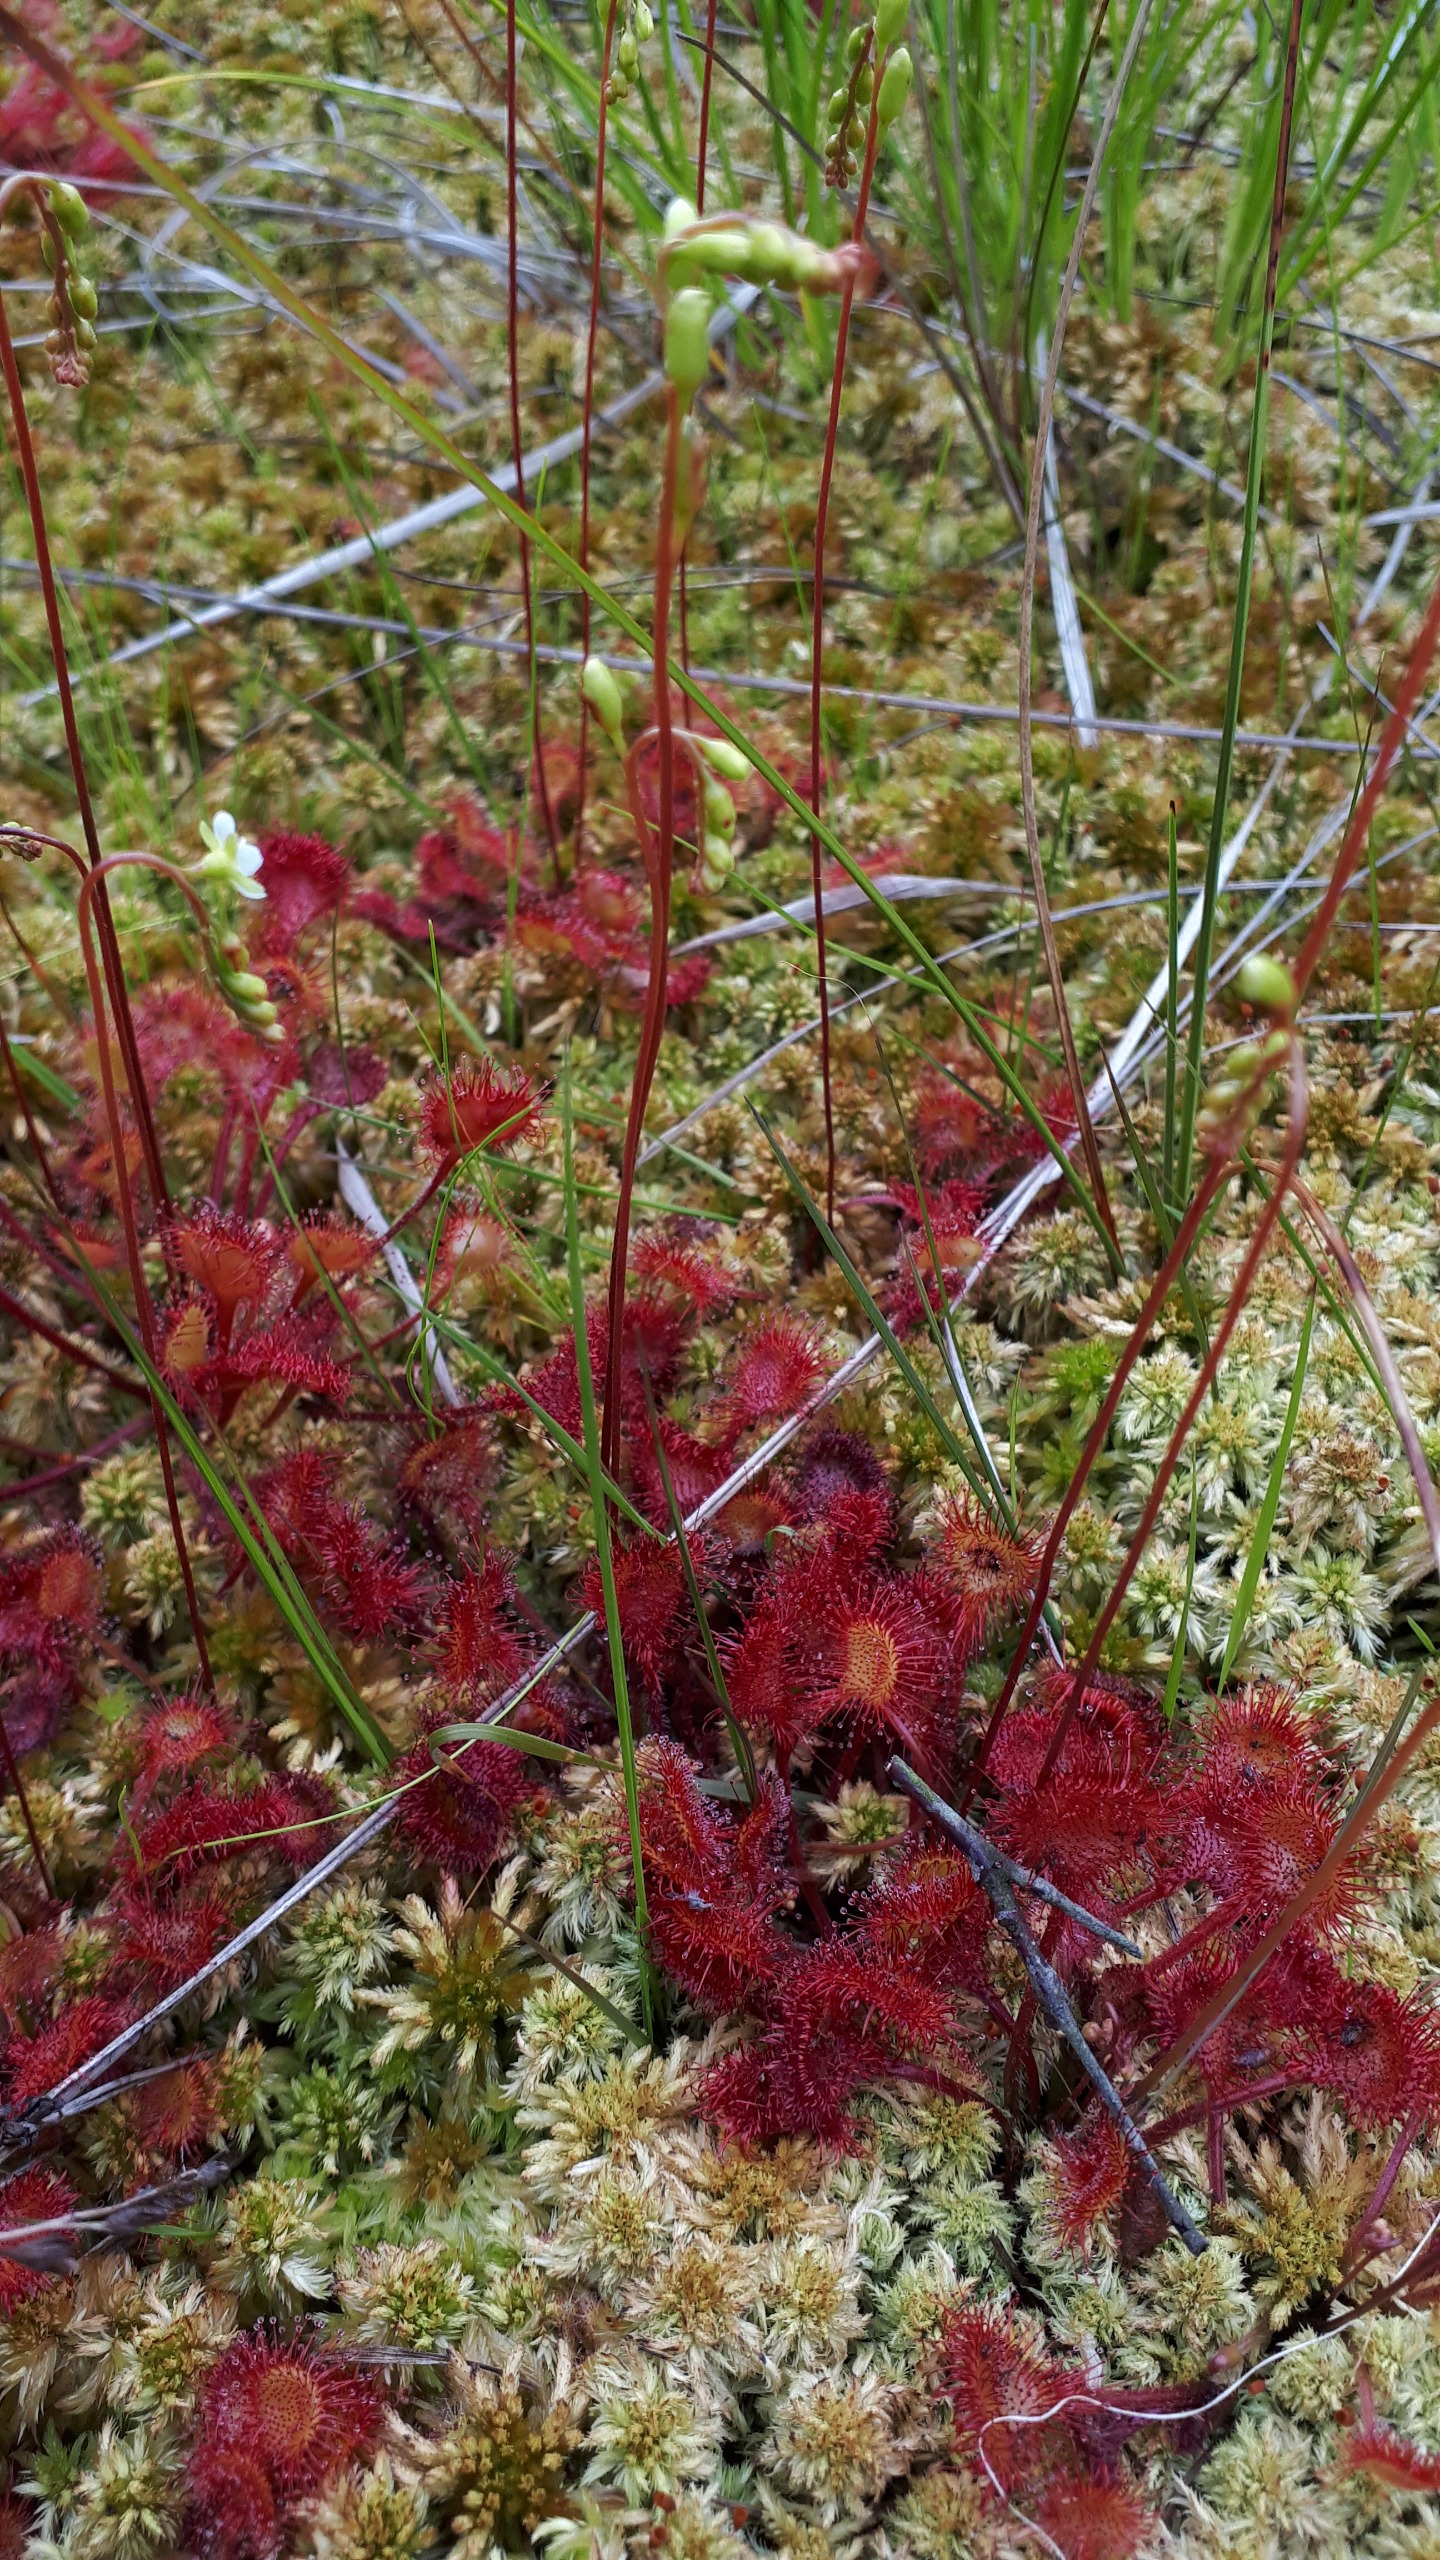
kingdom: Plantae
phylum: Tracheophyta
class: Magnoliopsida
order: Caryophyllales
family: Droseraceae
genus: Drosera
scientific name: Drosera rotundifolia
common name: Rundbladet soldug
